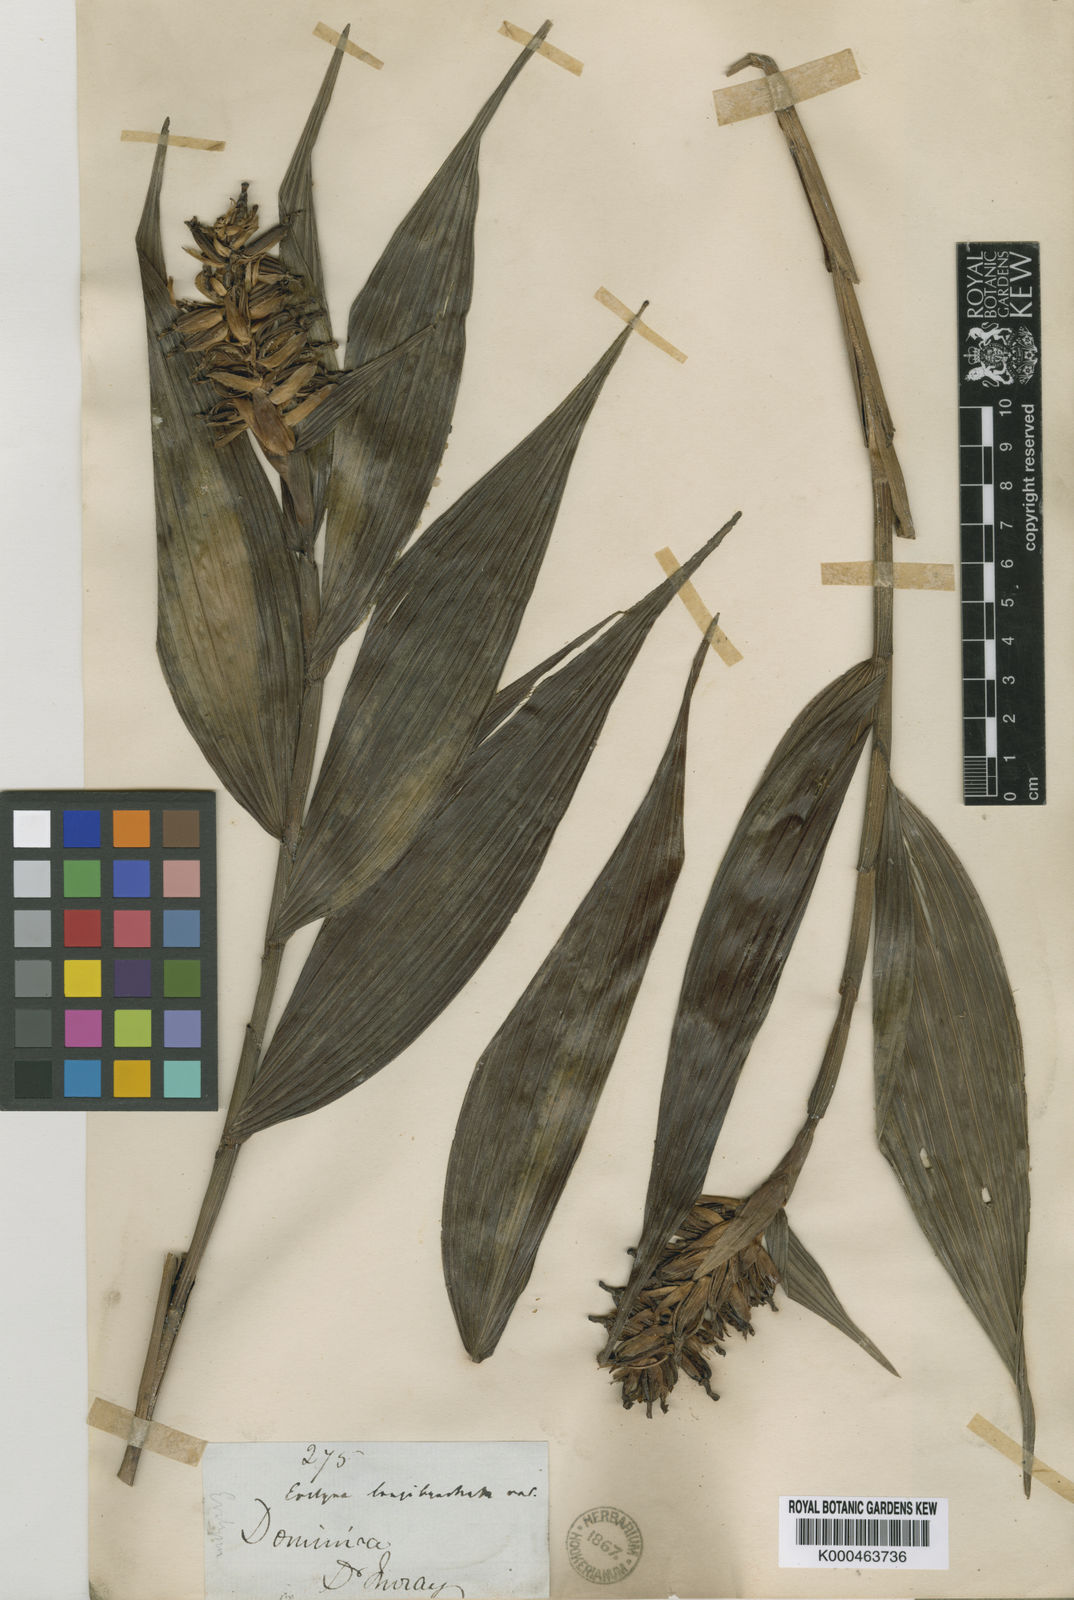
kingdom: Plantae
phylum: Tracheophyta
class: Liliopsida
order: Asparagales
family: Orchidaceae
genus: Elleanthus
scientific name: Elleanthus longibracteatus
